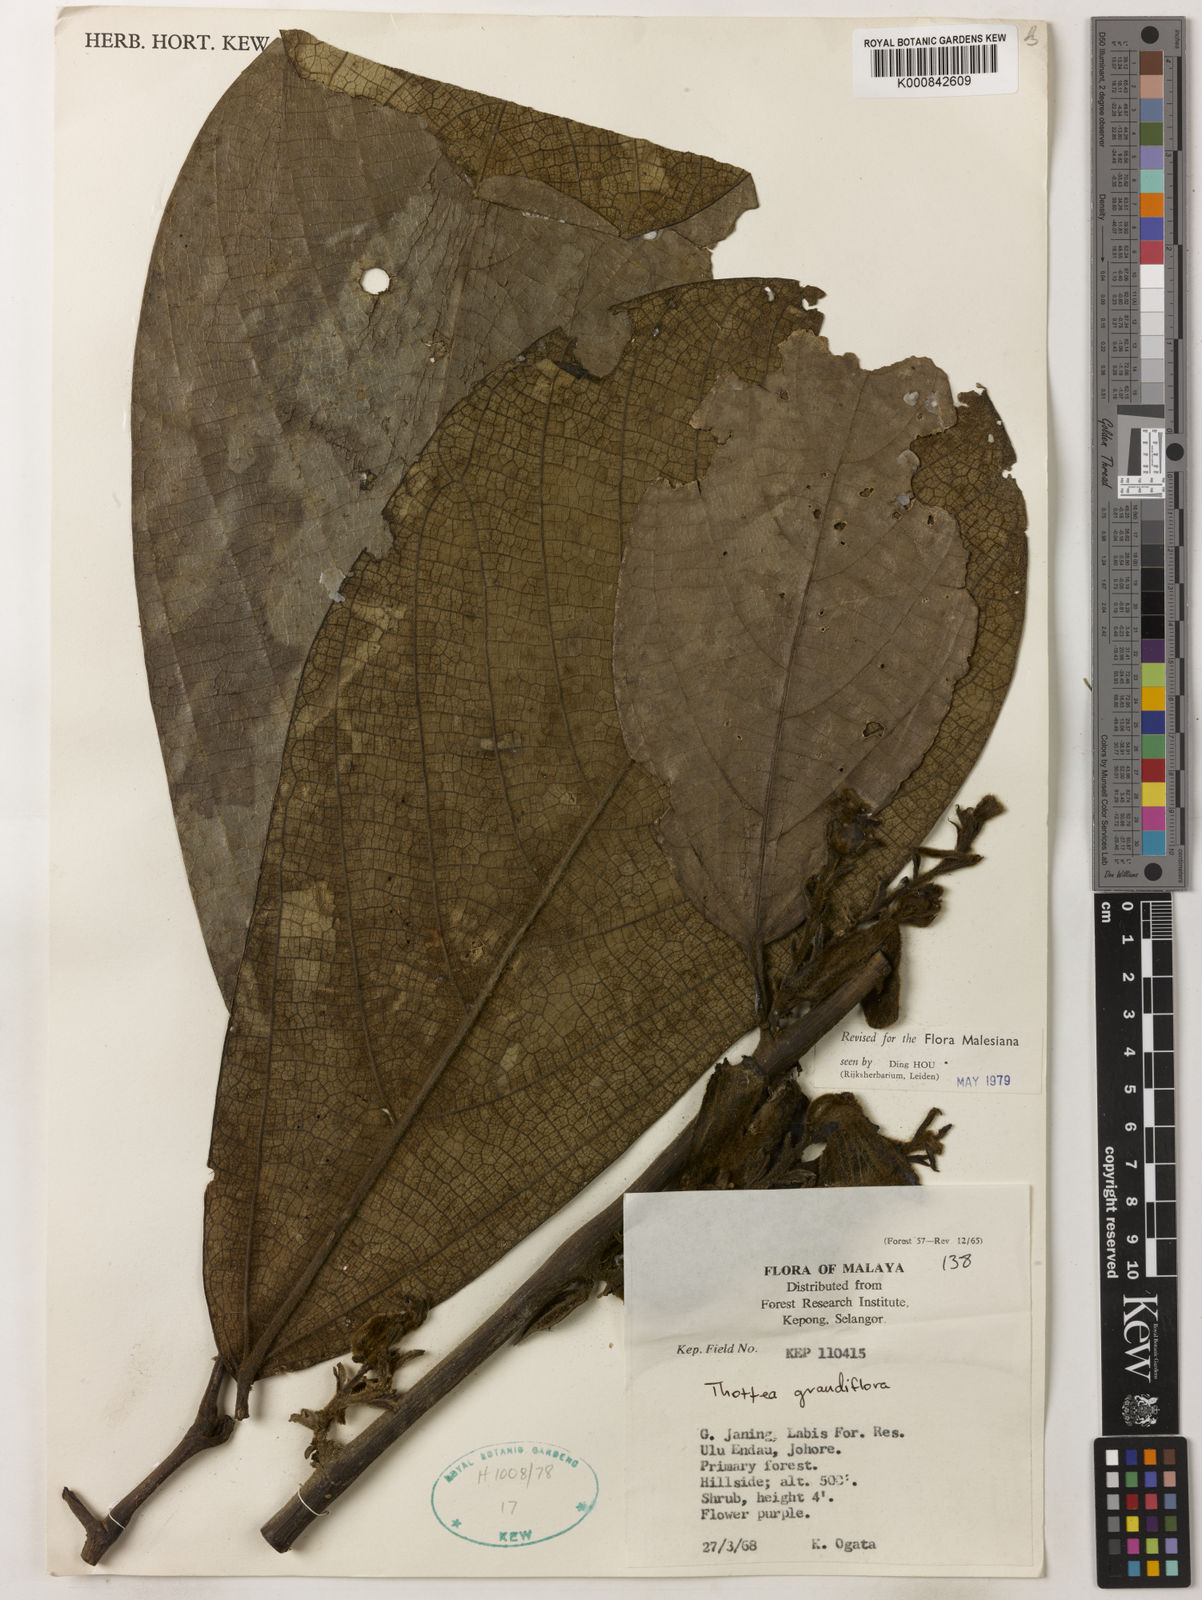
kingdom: Plantae
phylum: Tracheophyta
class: Magnoliopsida
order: Piperales
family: Aristolochiaceae
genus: Thottea
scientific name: Thottea grandiflora
